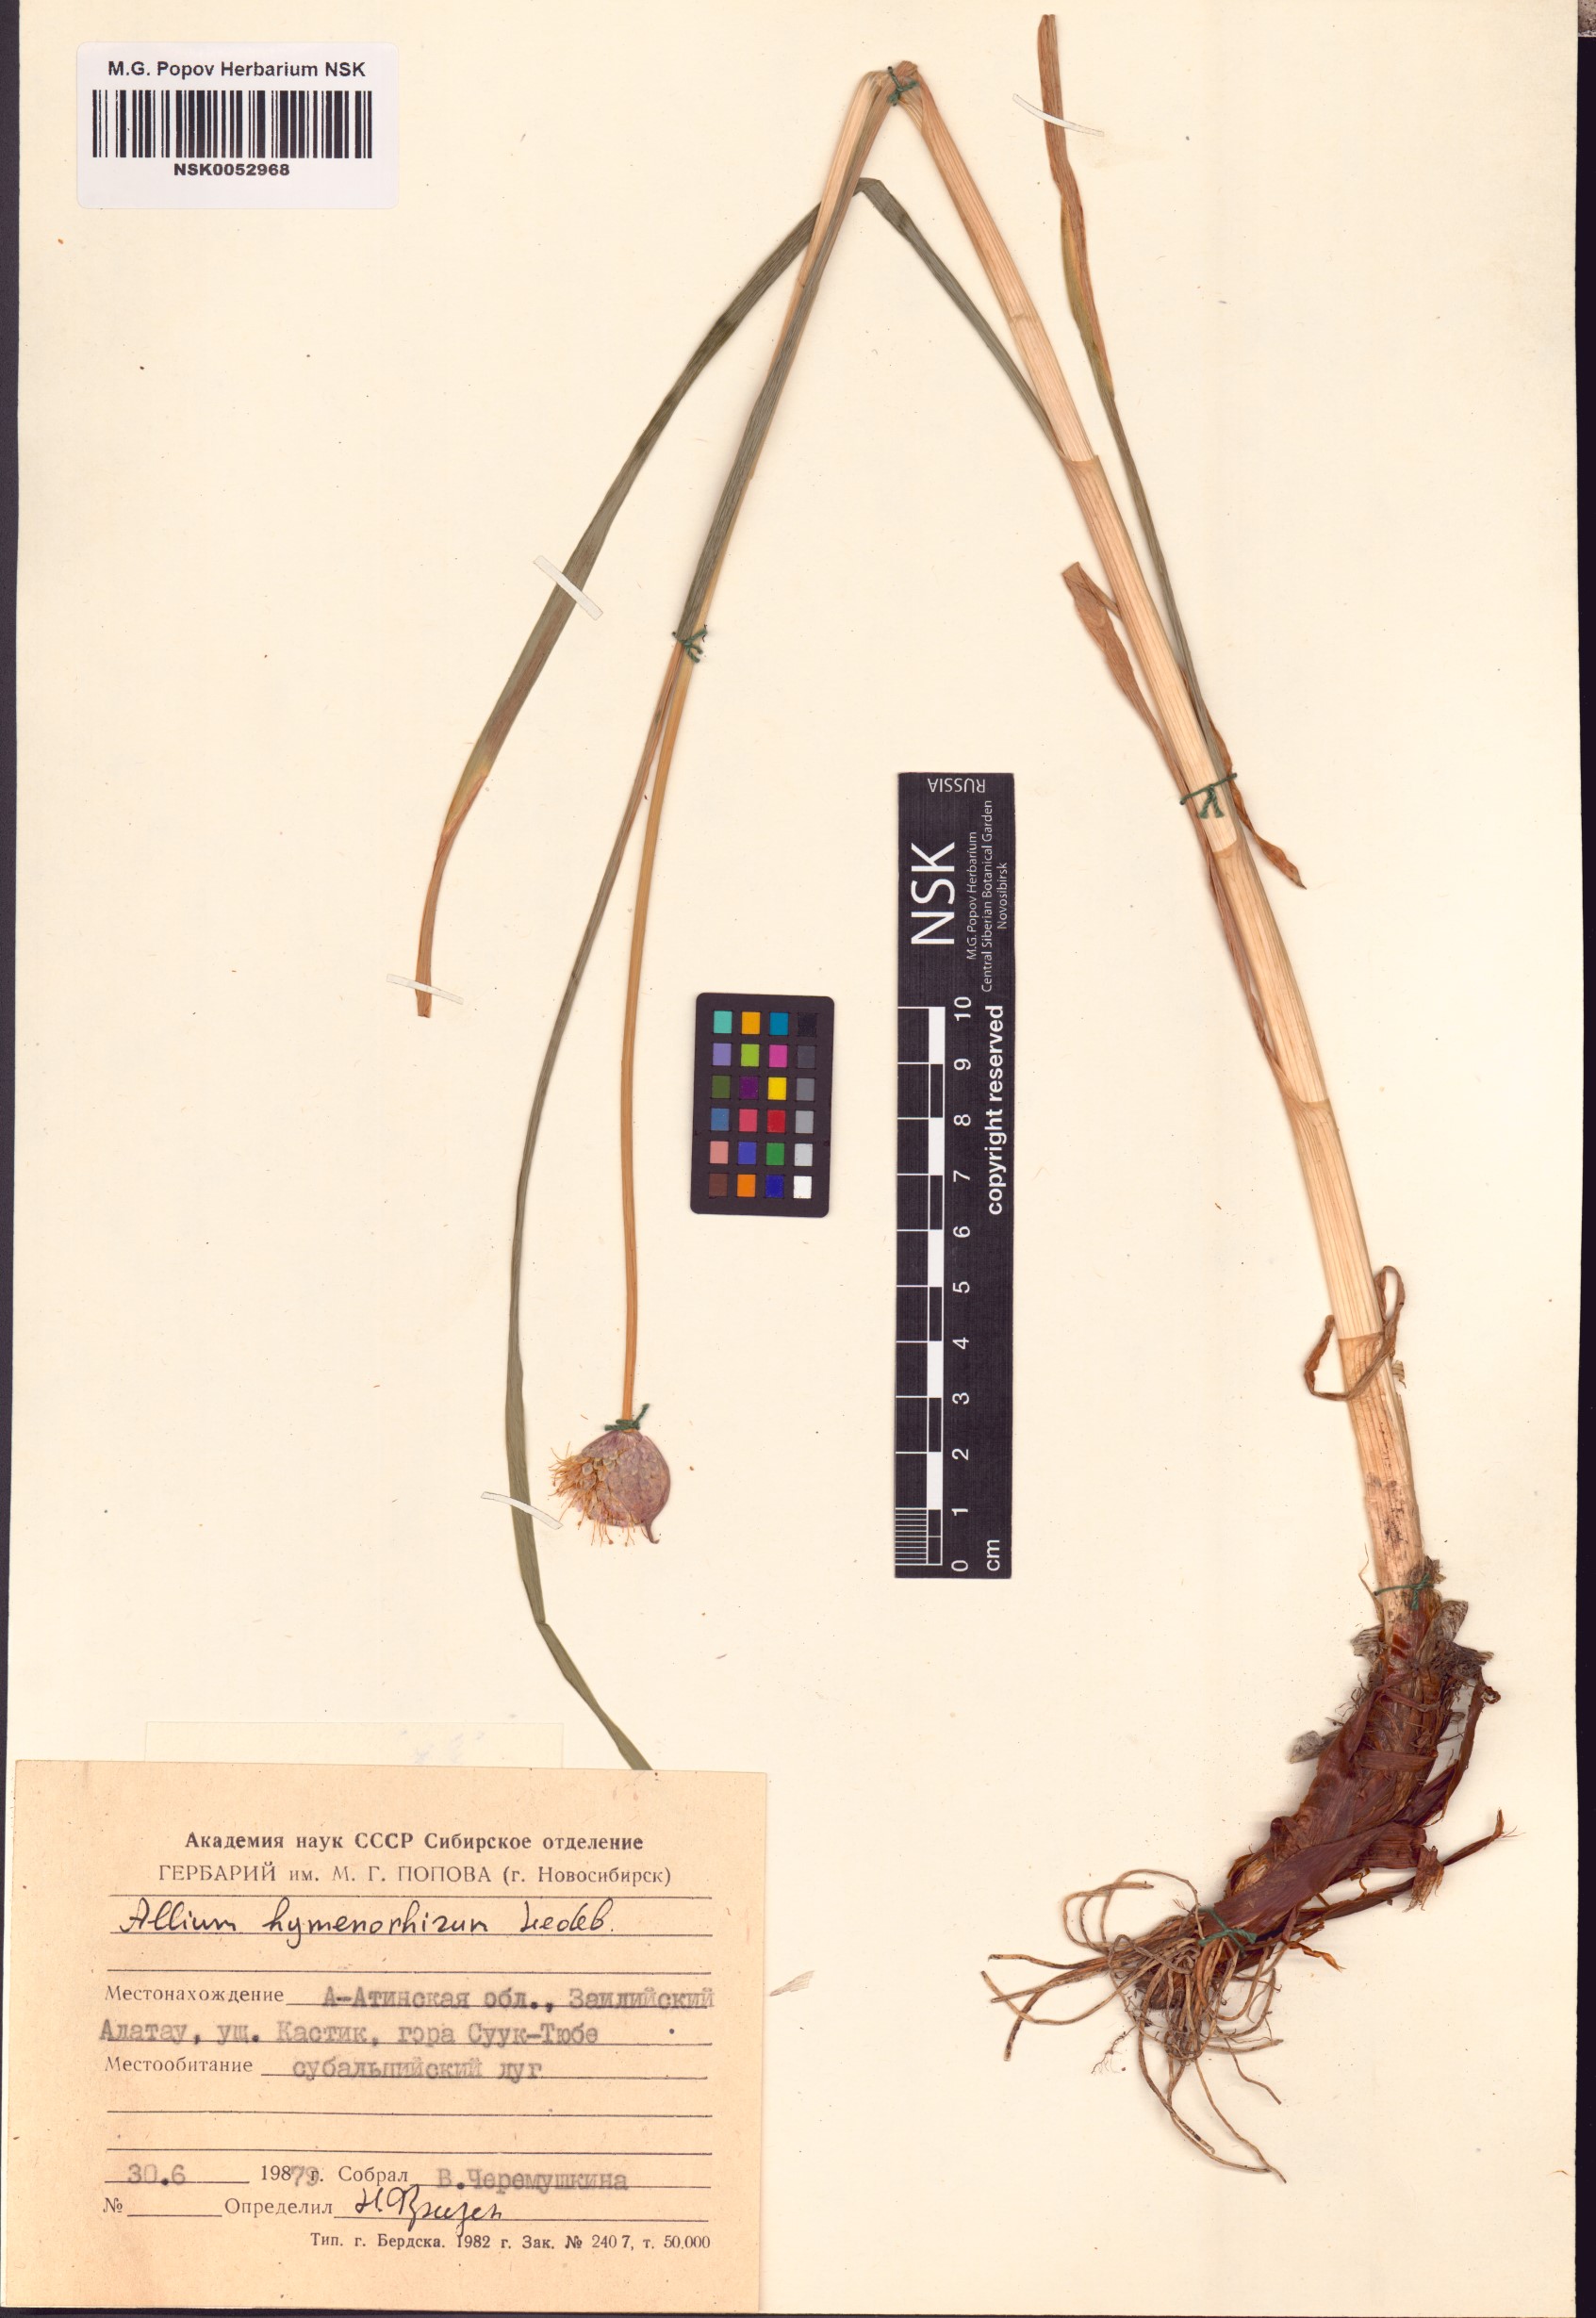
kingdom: Plantae
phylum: Tracheophyta
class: Liliopsida
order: Asparagales
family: Amaryllidaceae
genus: Allium
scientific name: Allium hymenorhizum
